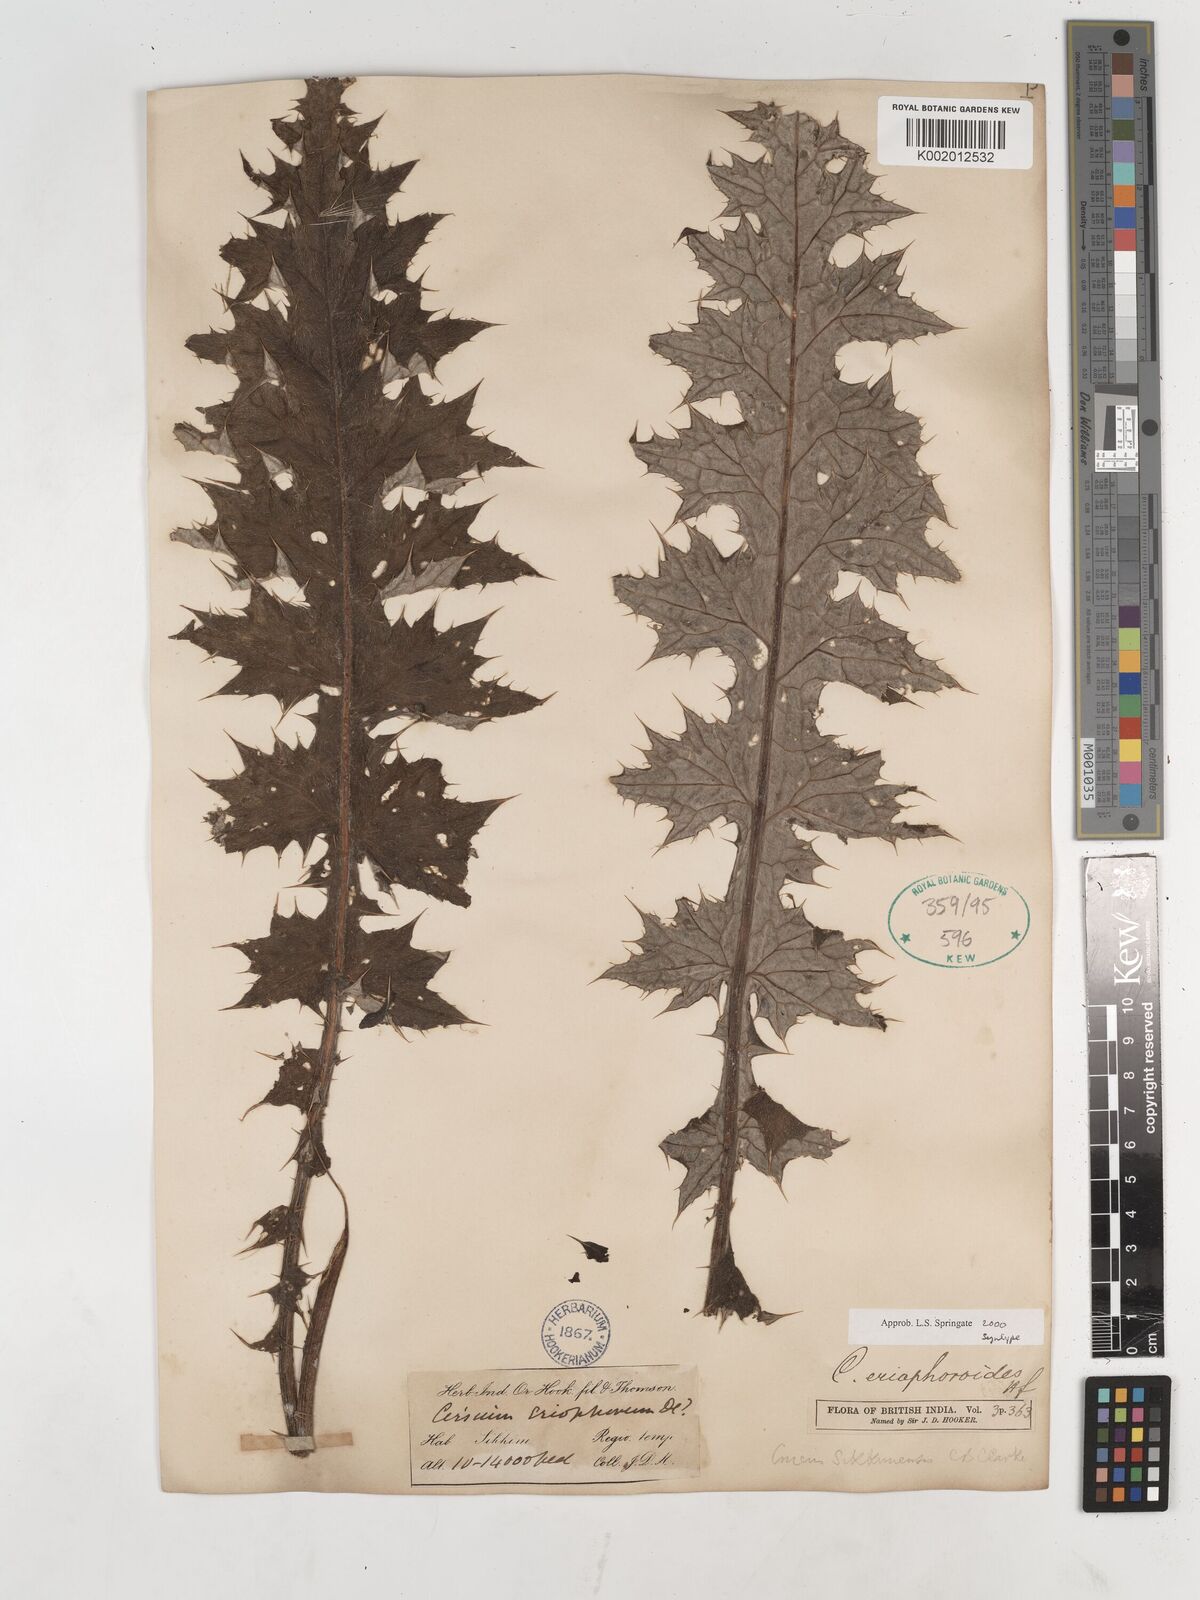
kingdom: Plantae
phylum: Tracheophyta
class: Magnoliopsida
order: Asterales
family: Asteraceae
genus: Cirsium
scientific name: Cirsium eriophoroides
